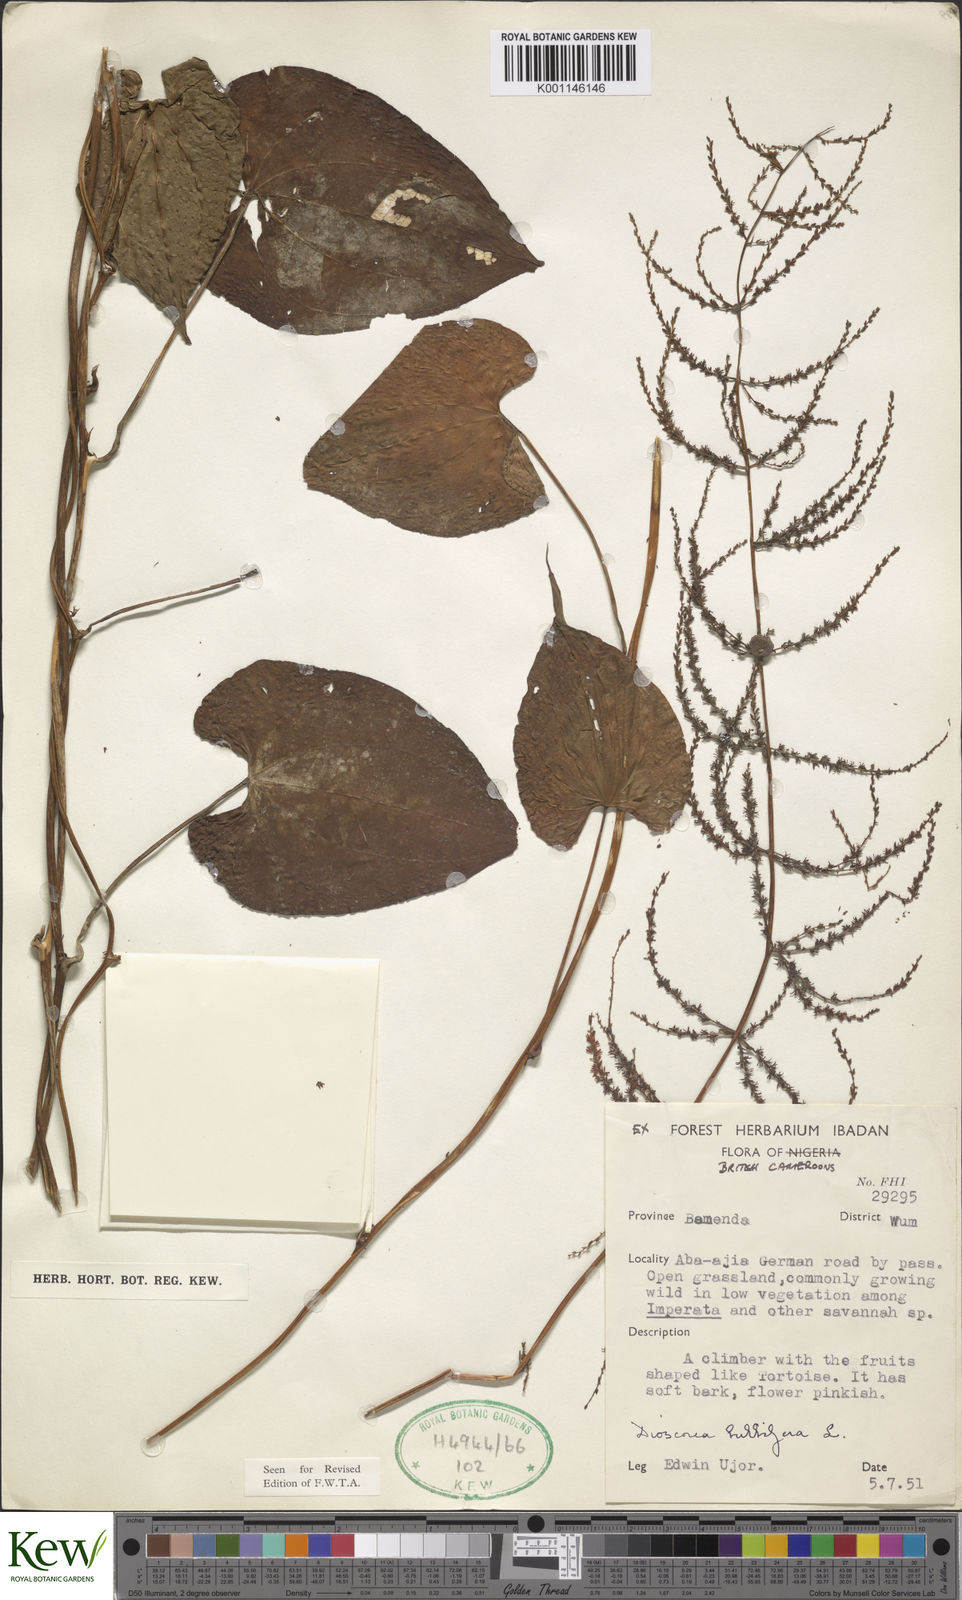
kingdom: Plantae
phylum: Tracheophyta
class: Liliopsida
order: Dioscoreales
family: Dioscoreaceae
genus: Dioscorea
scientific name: Dioscorea bulbifera
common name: Air yam
